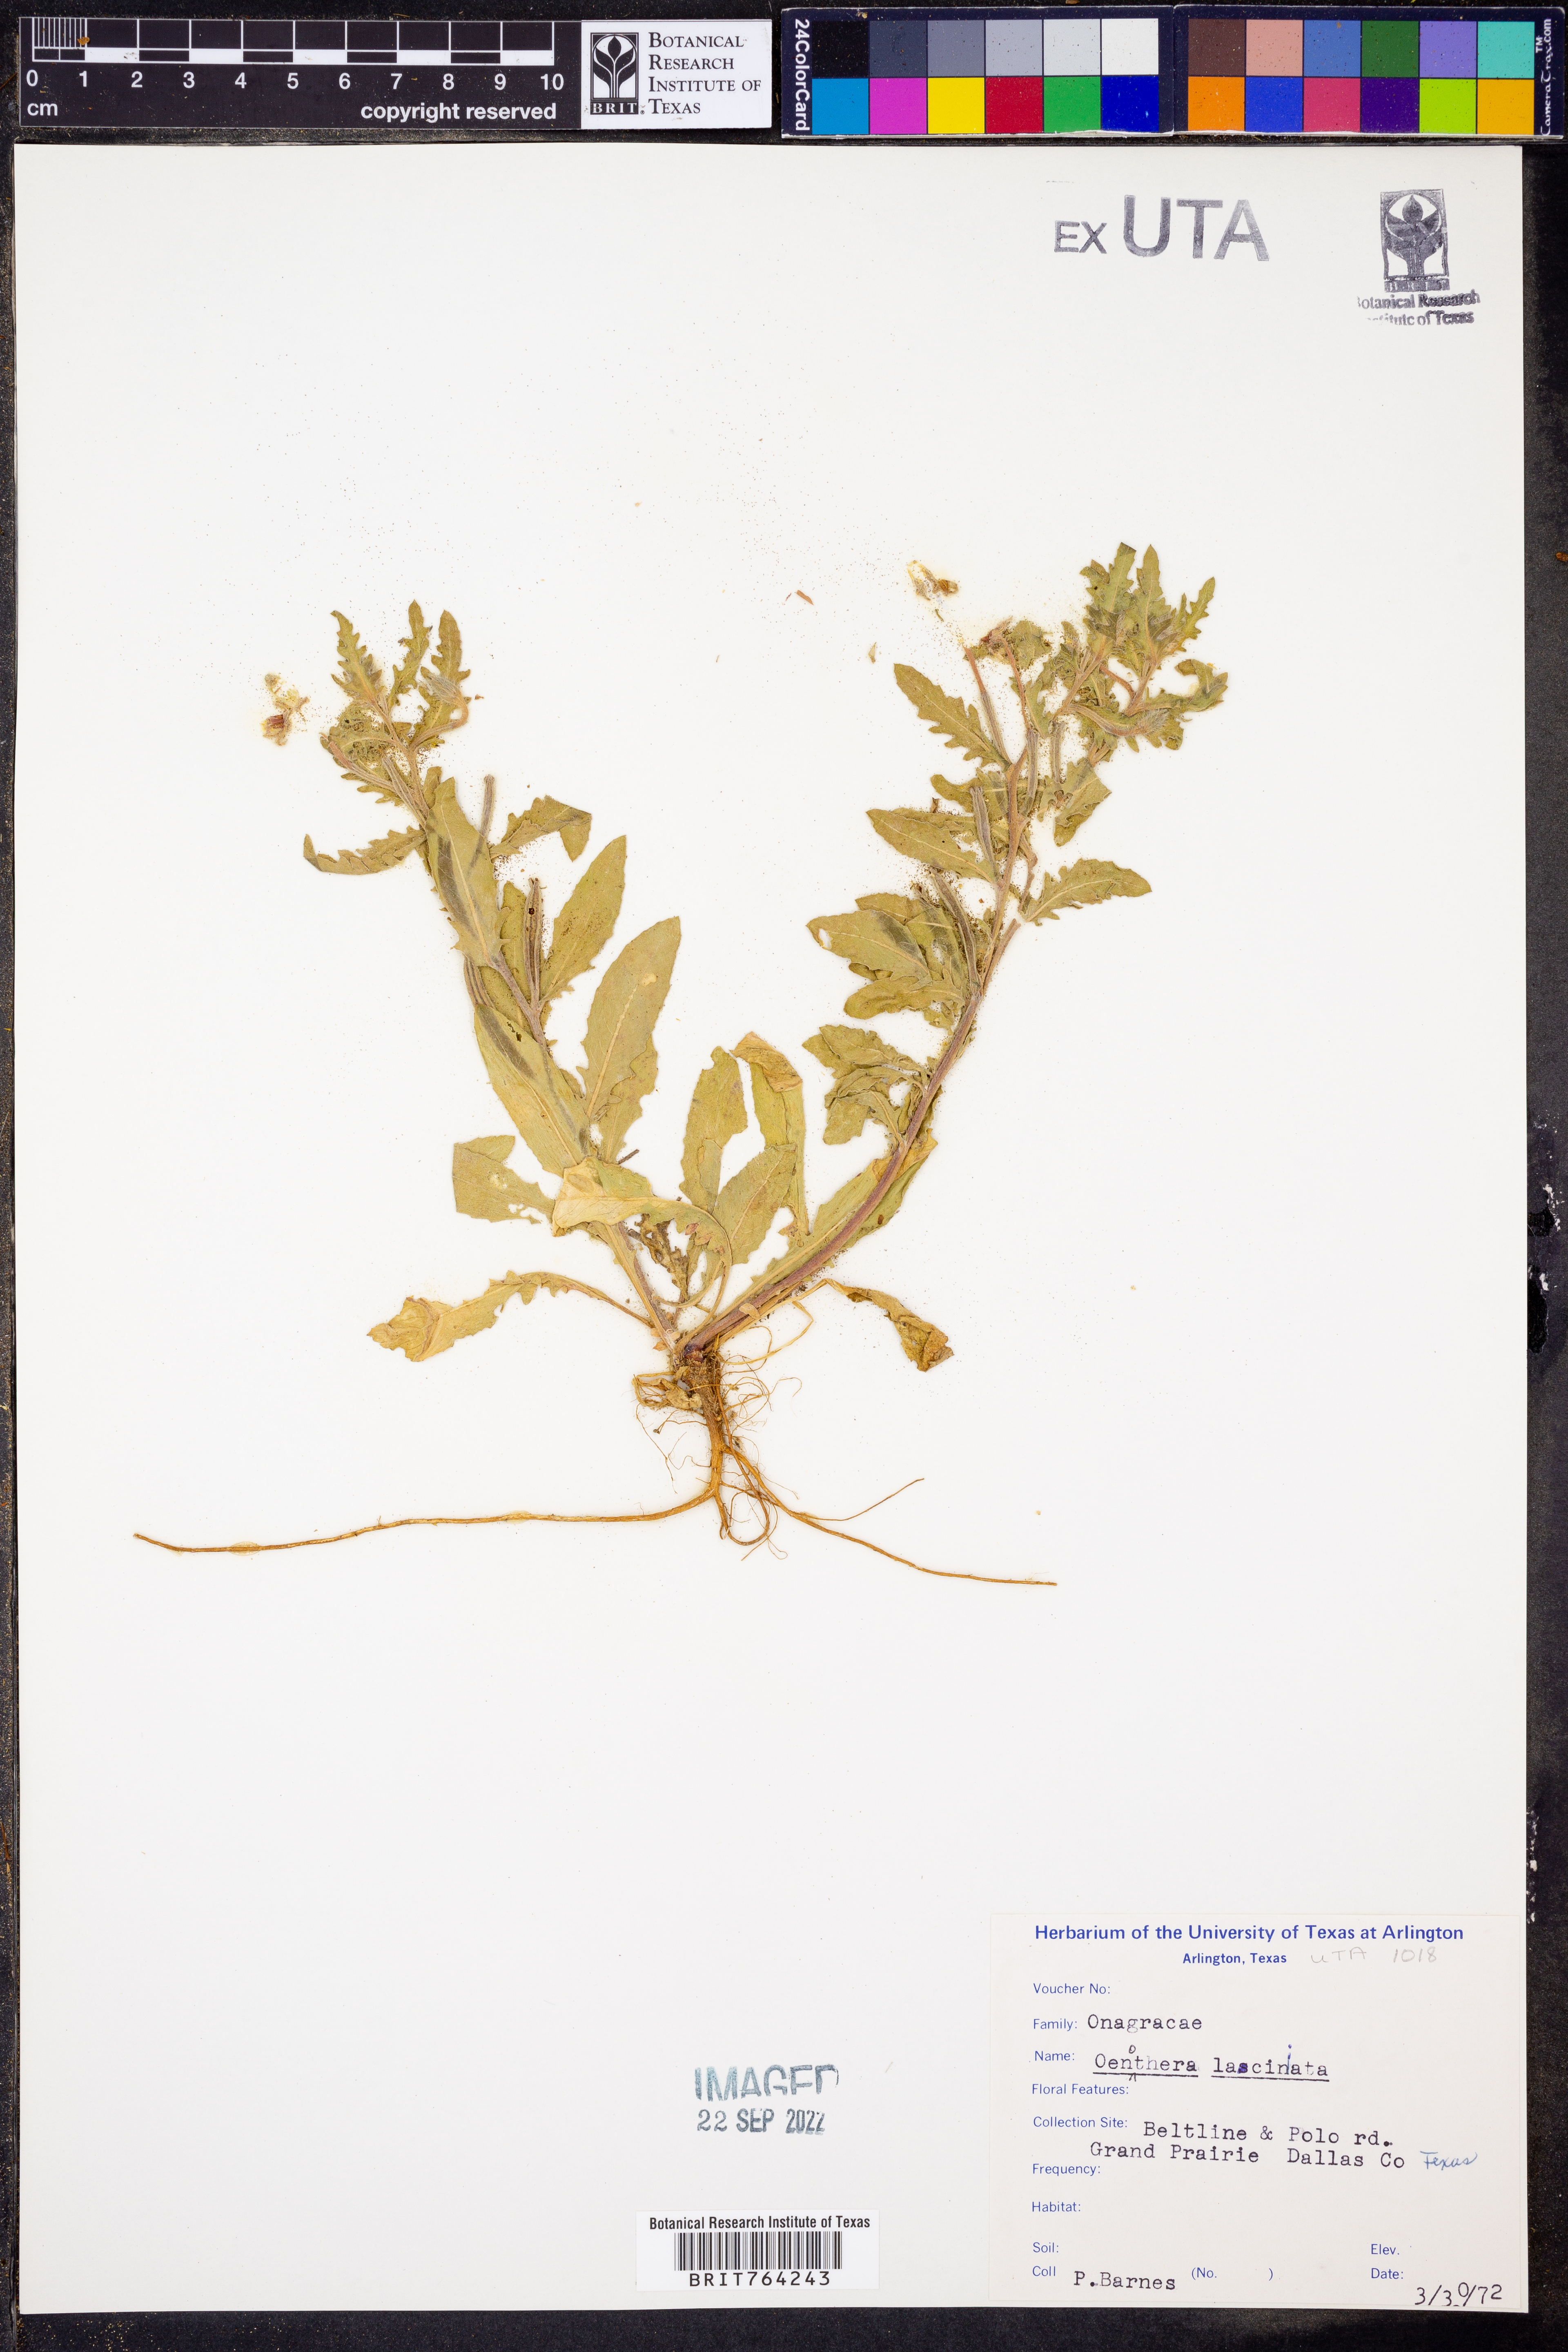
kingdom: Plantae
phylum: Tracheophyta
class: Magnoliopsida
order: Myrtales
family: Onagraceae
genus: Oenothera
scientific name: Oenothera laciniata
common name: Cut-leaved evening-primrose
